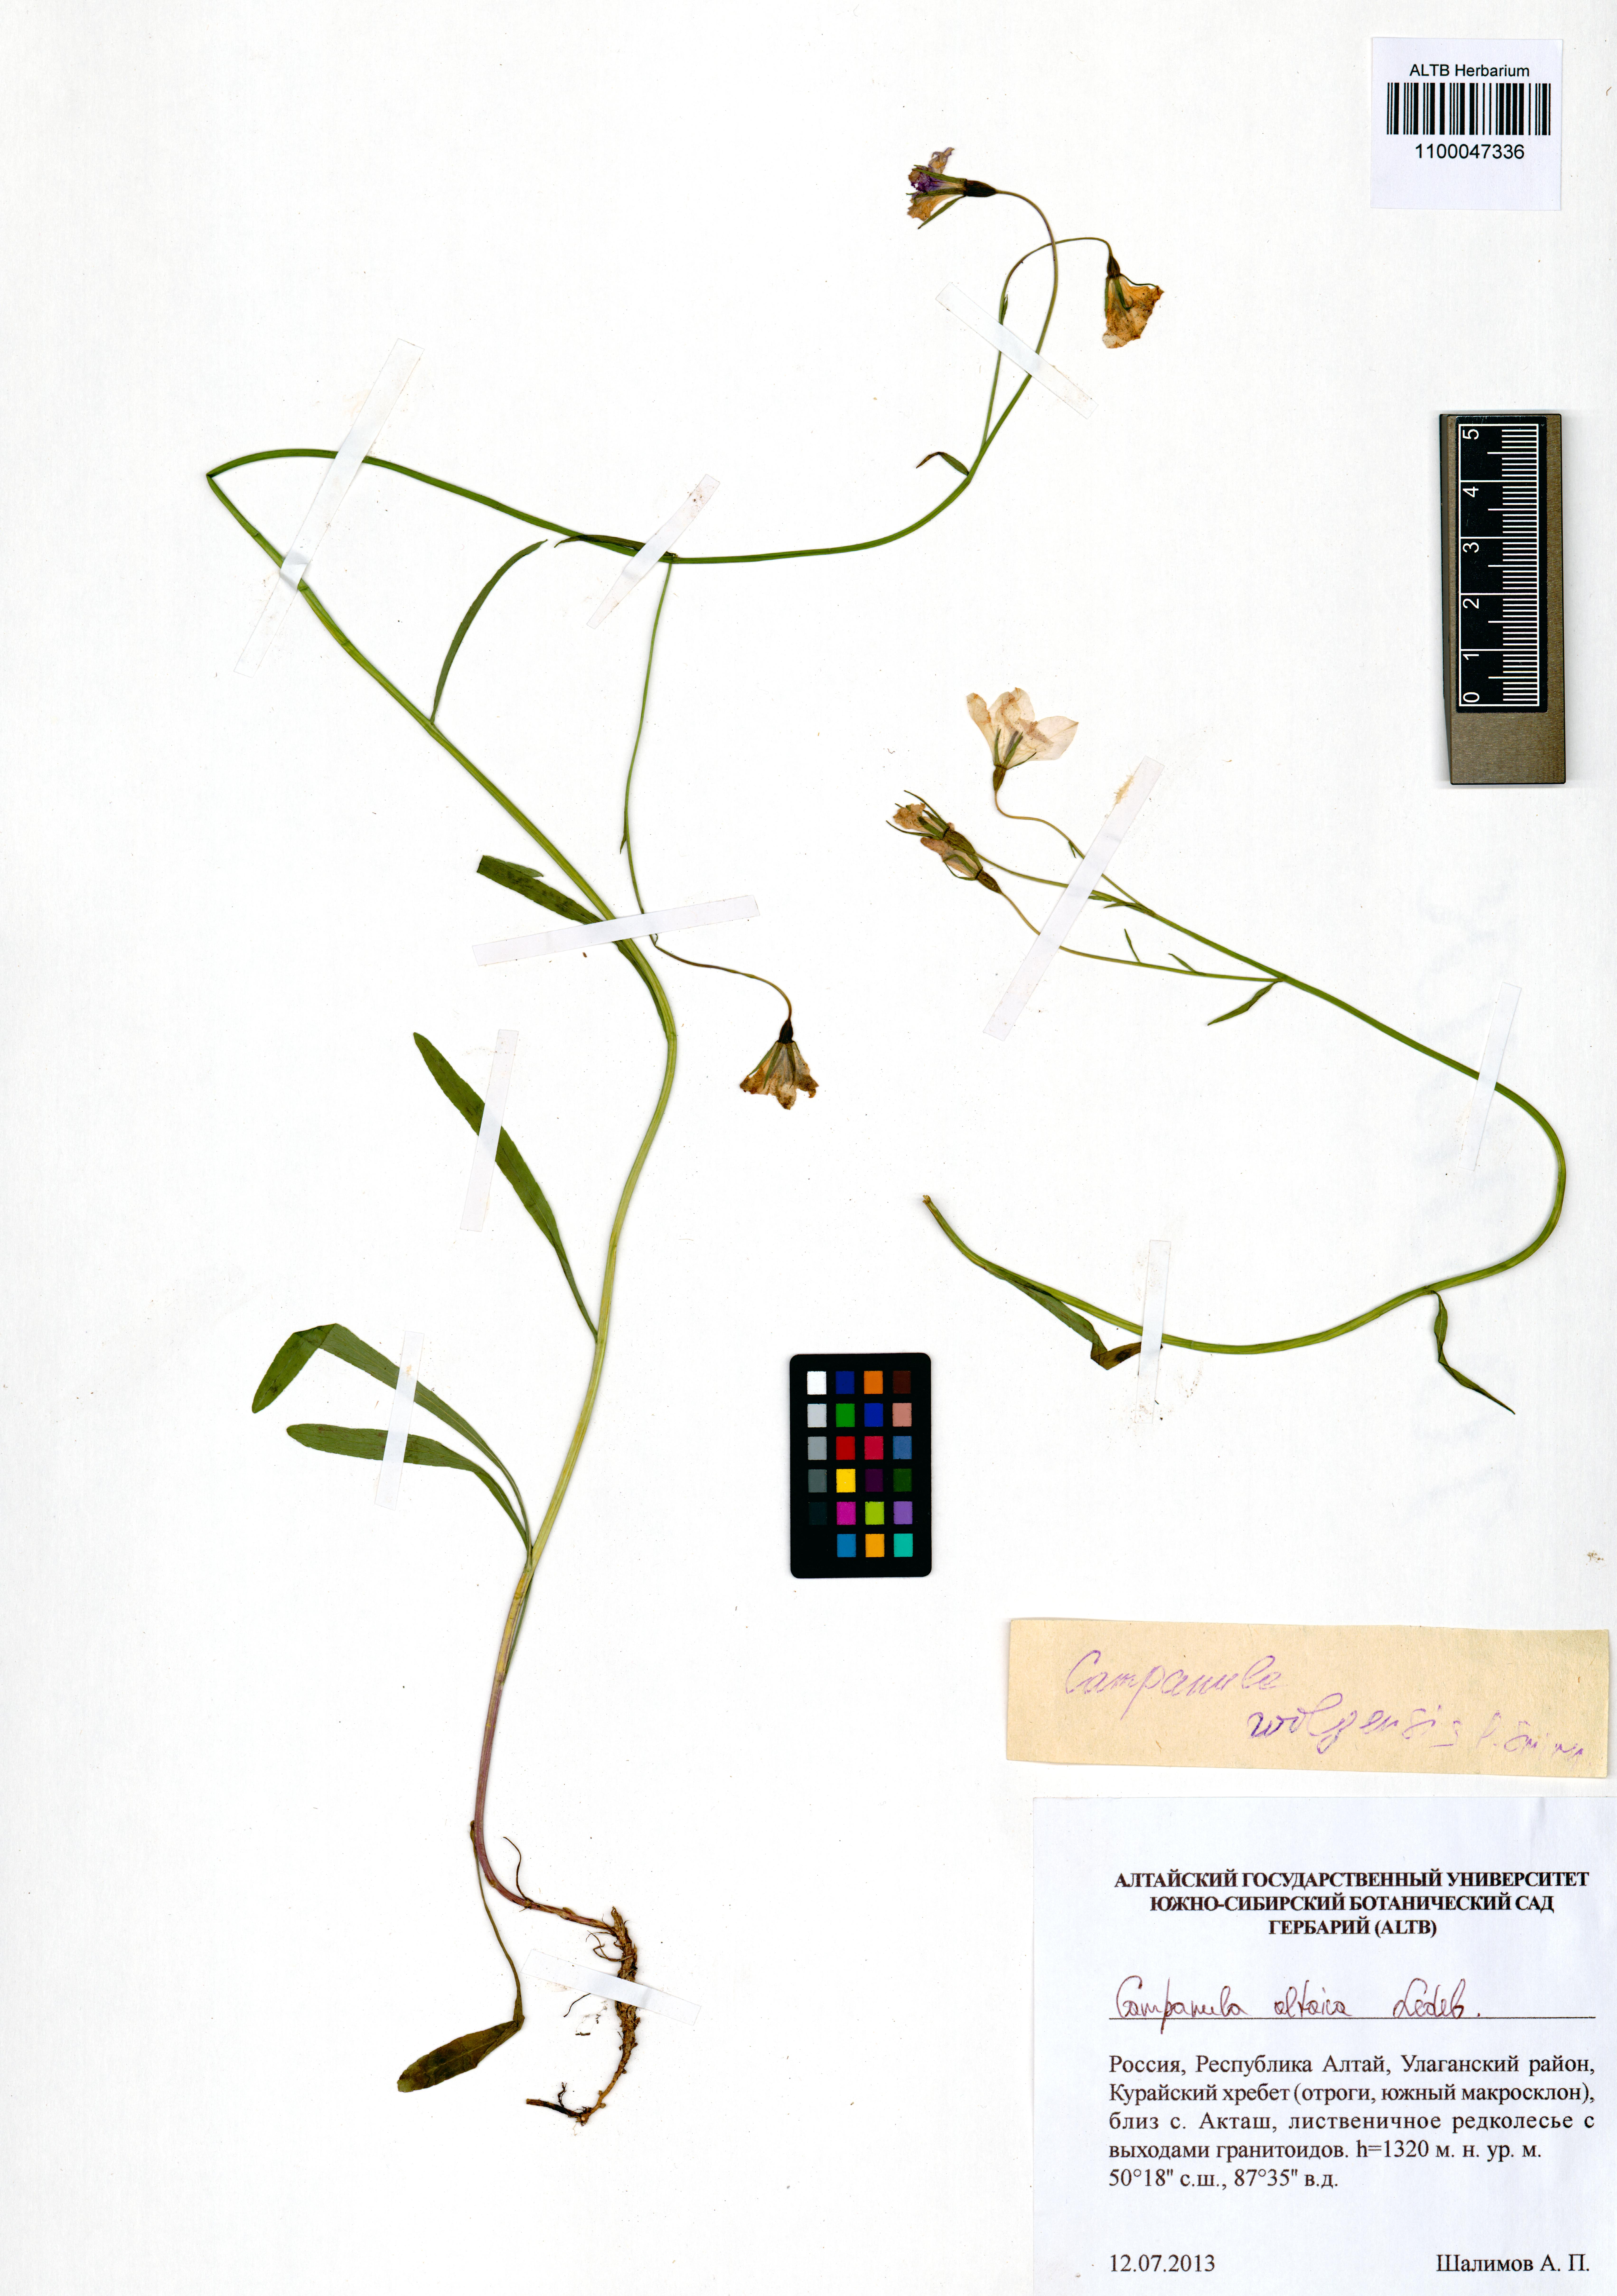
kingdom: Plantae
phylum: Tracheophyta
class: Magnoliopsida
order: Asterales
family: Campanulaceae
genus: Campanula
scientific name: Campanula stevenii
